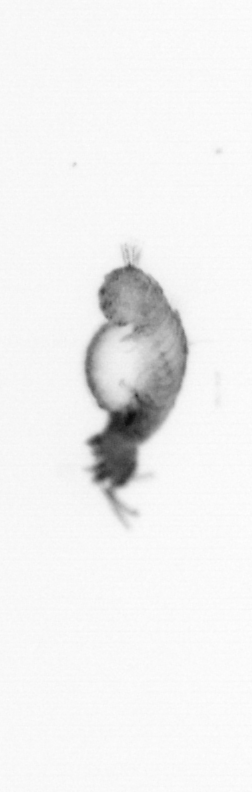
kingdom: Animalia
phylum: Annelida
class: Polychaeta
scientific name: Polychaeta
